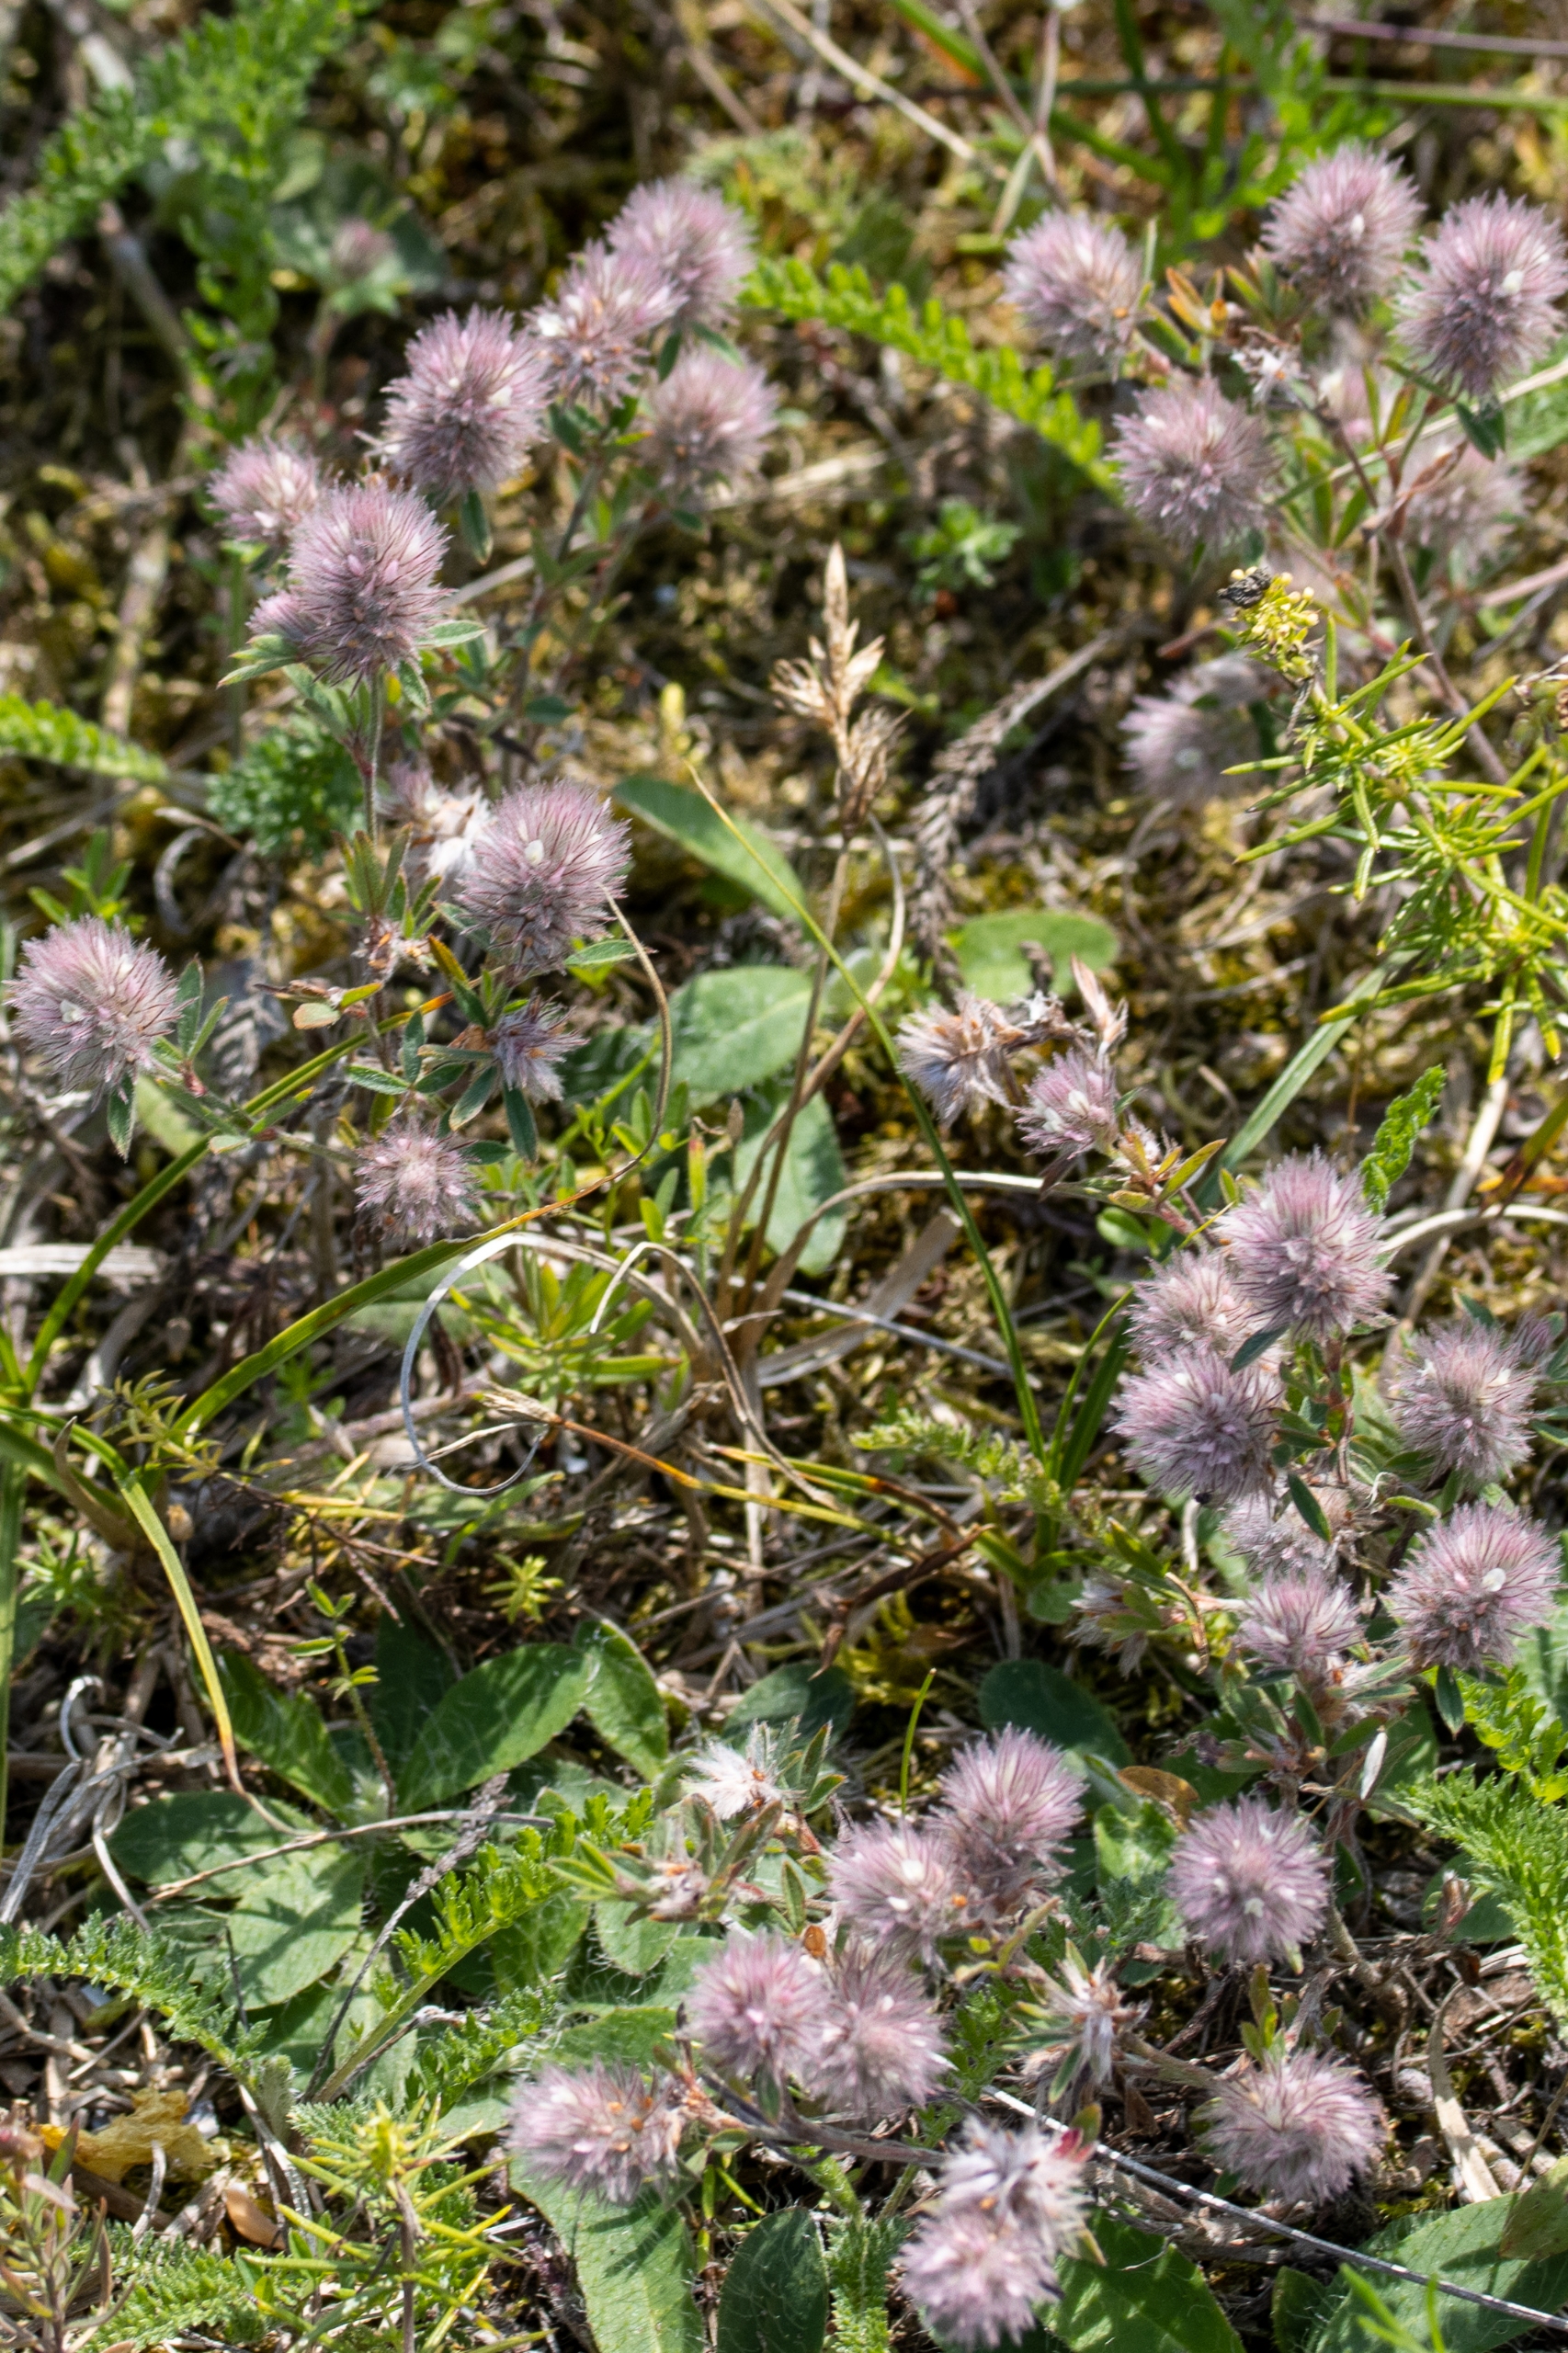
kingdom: Plantae
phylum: Tracheophyta
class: Magnoliopsida
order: Fabales
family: Fabaceae
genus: Trifolium
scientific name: Trifolium arvense
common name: Hare-kløver
